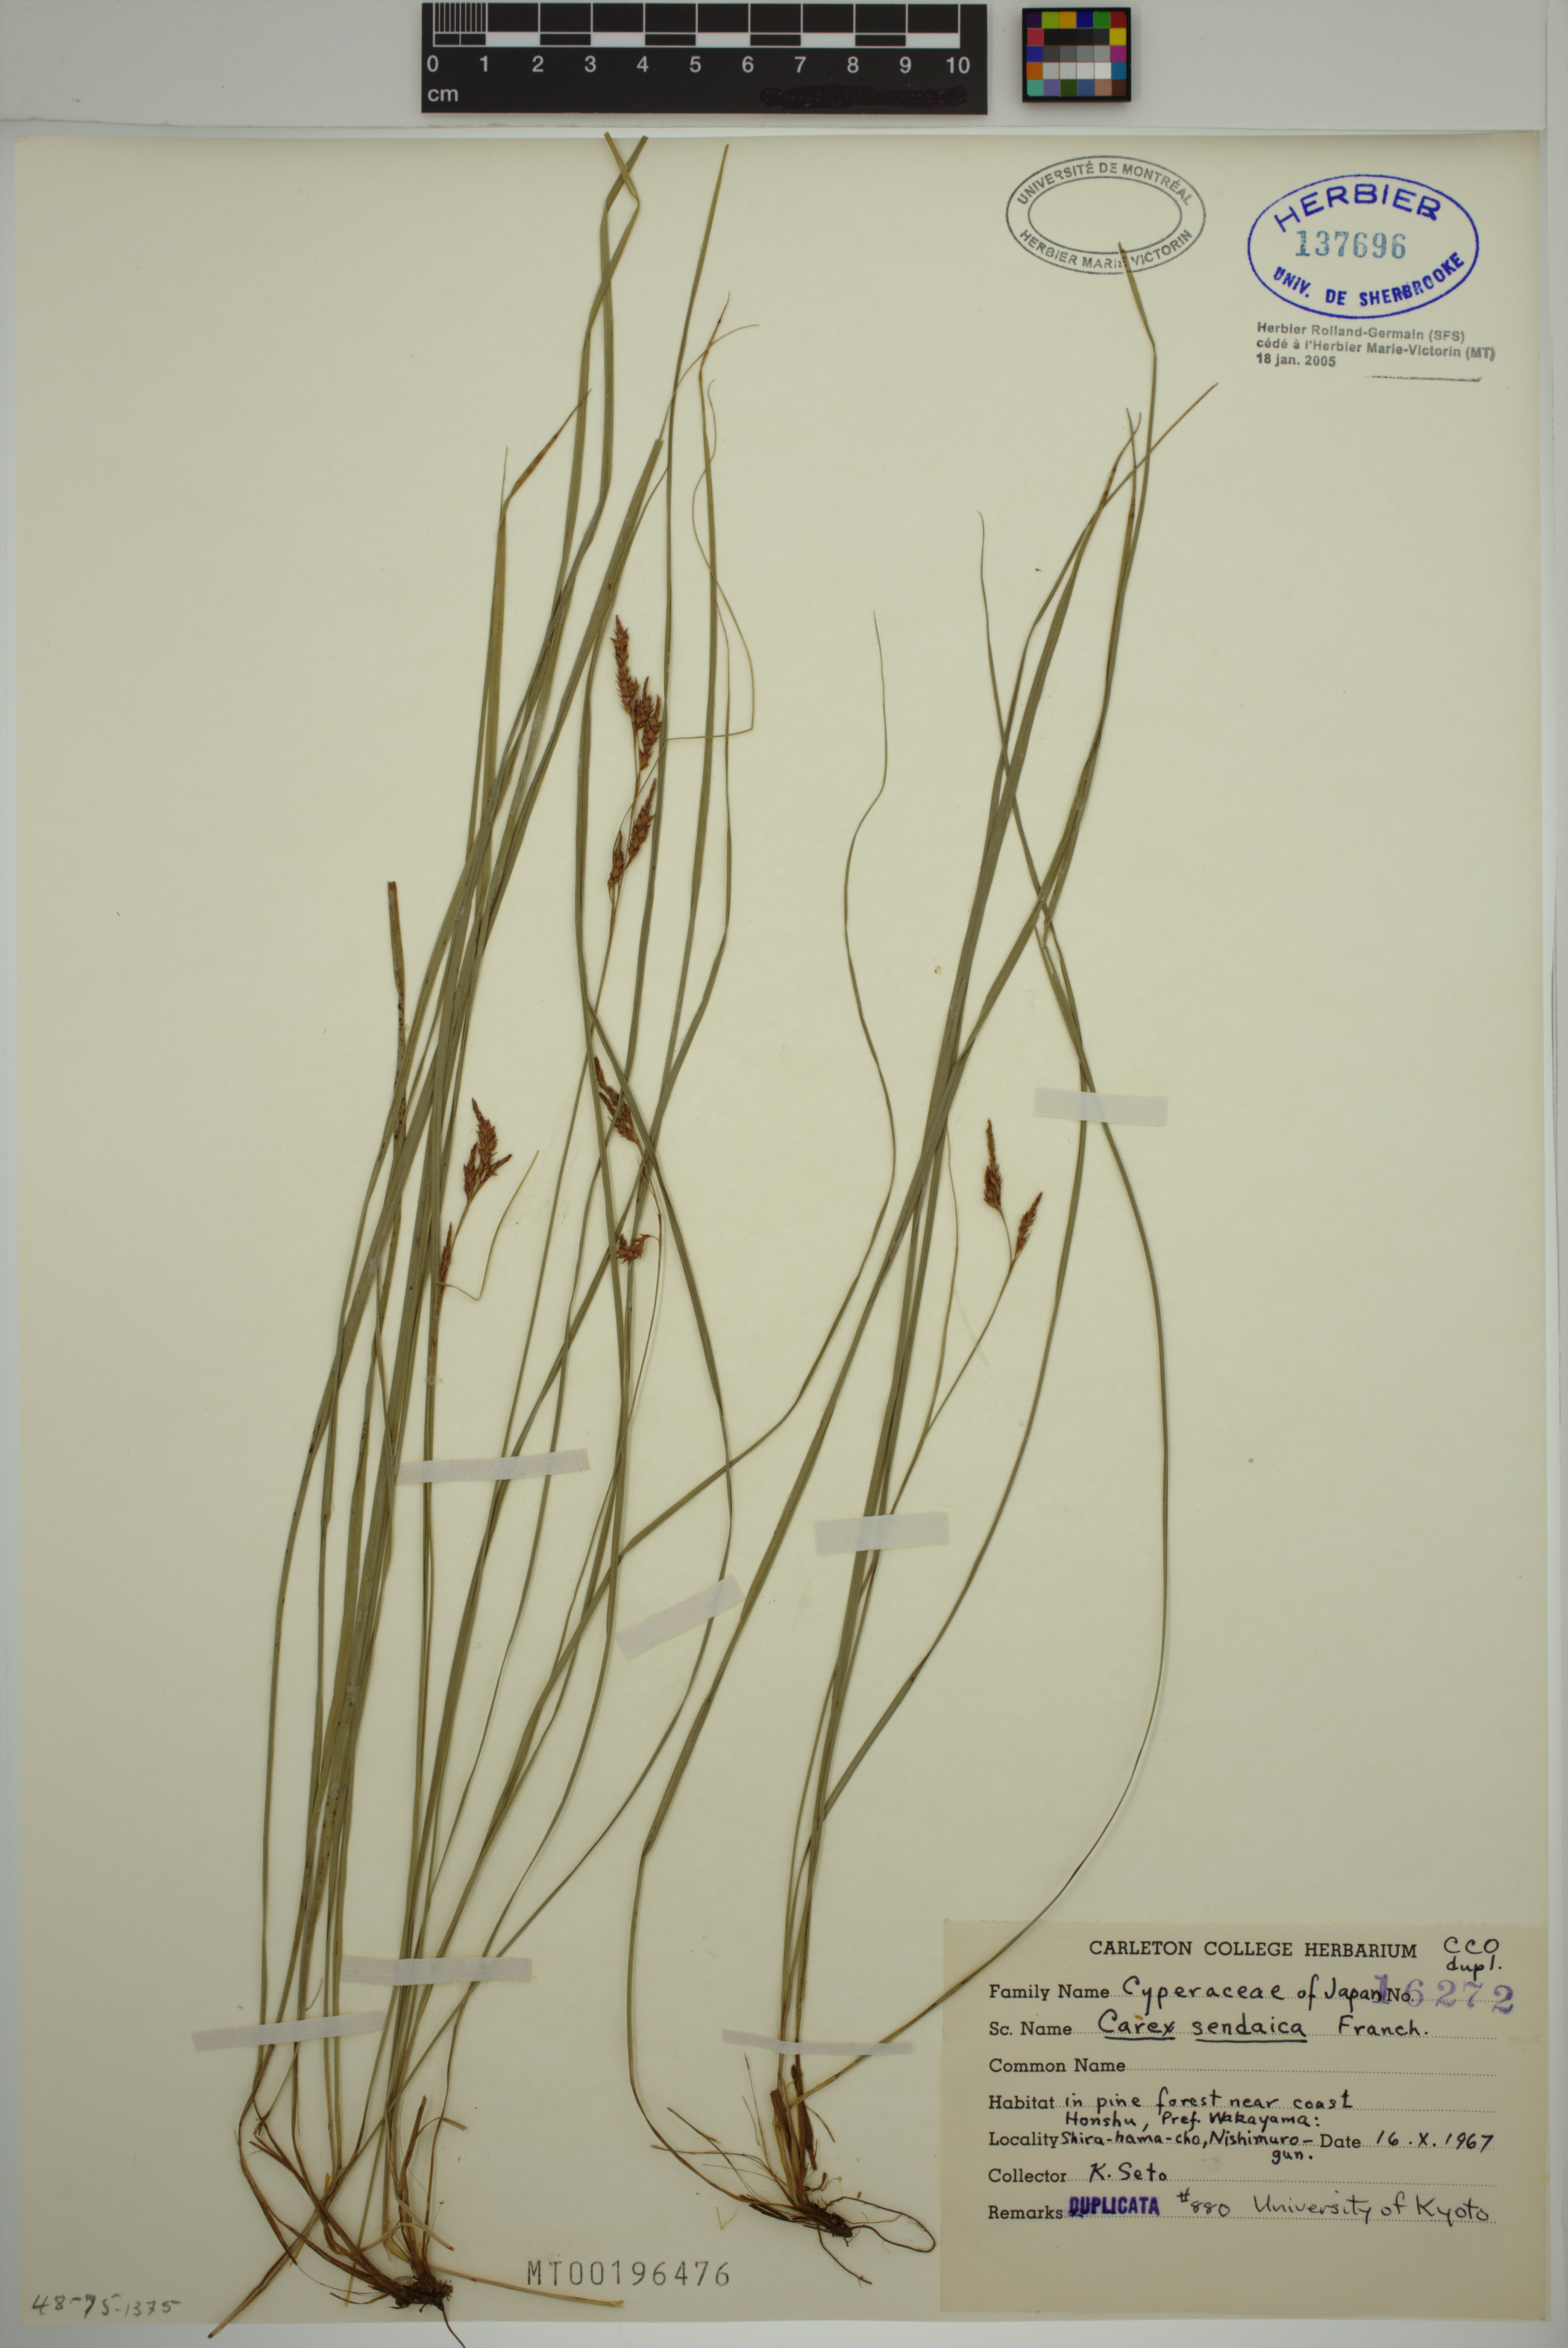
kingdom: Plantae
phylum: Tracheophyta
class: Liliopsida
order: Poales
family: Cyperaceae
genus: Carex
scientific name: Carex sendaica
